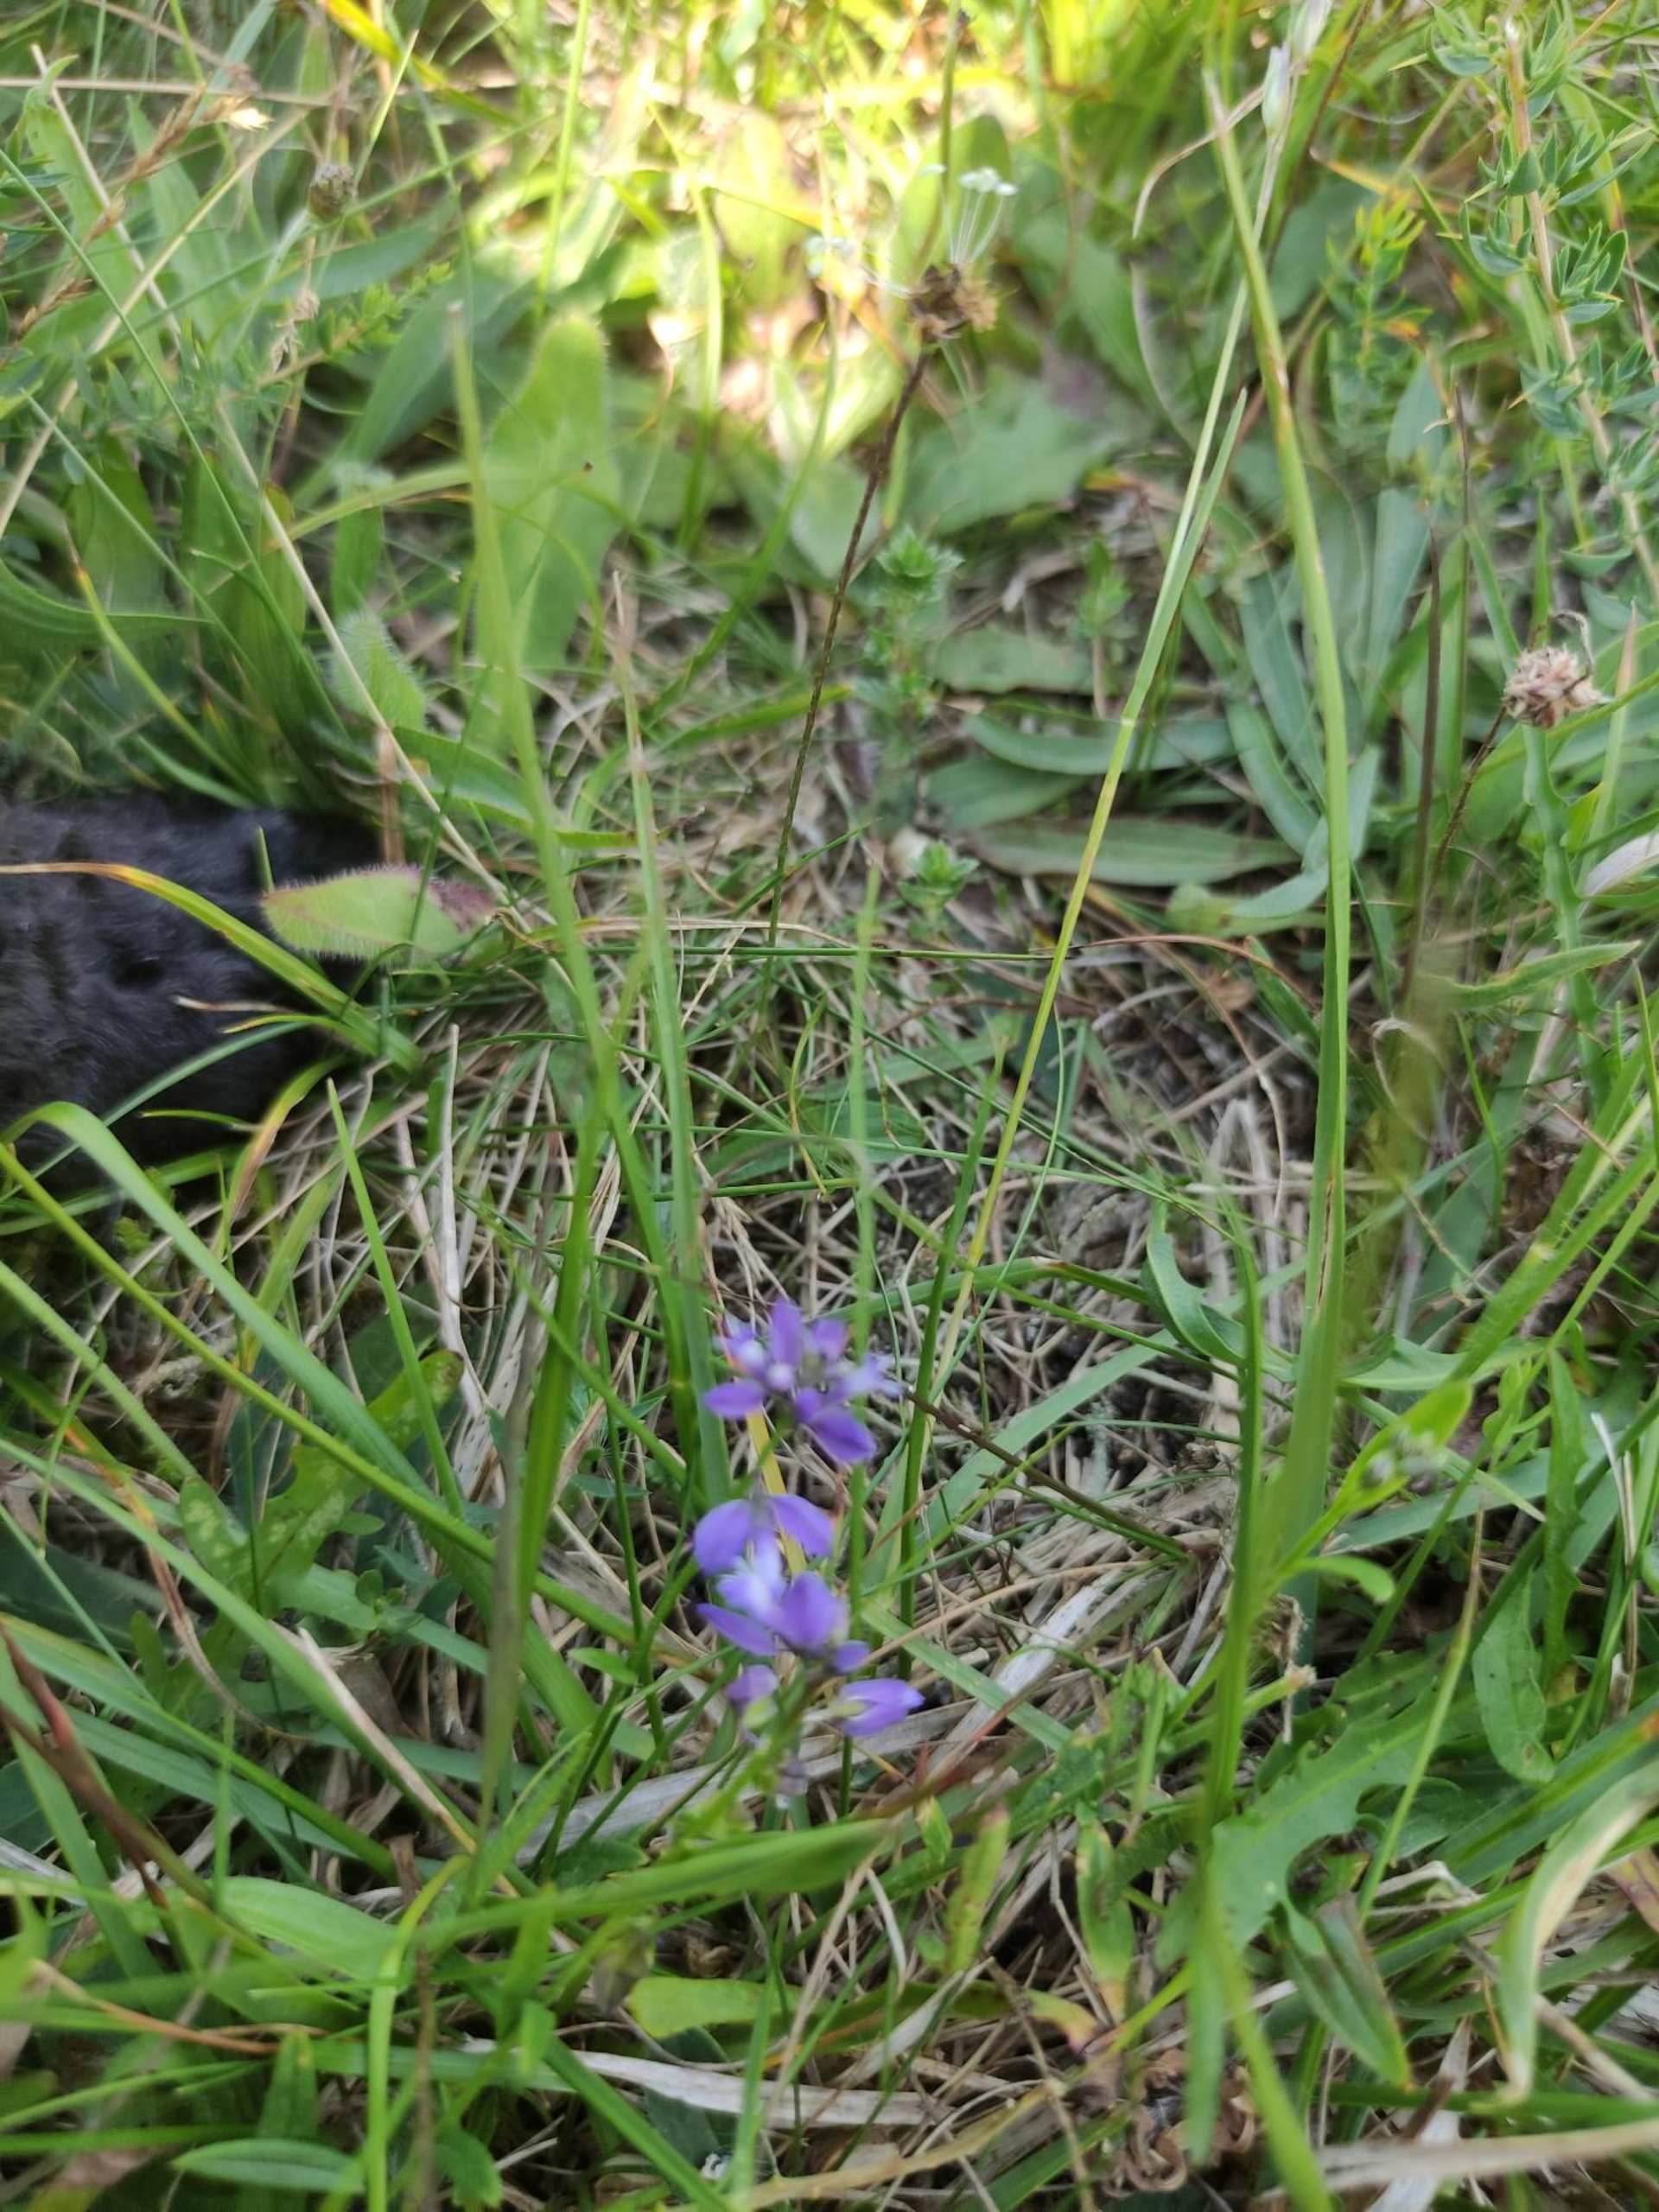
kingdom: Plantae
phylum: Tracheophyta
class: Magnoliopsida
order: Fabales
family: Polygalaceae
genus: Polygala
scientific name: Polygala
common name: Mælkeurtslægten
